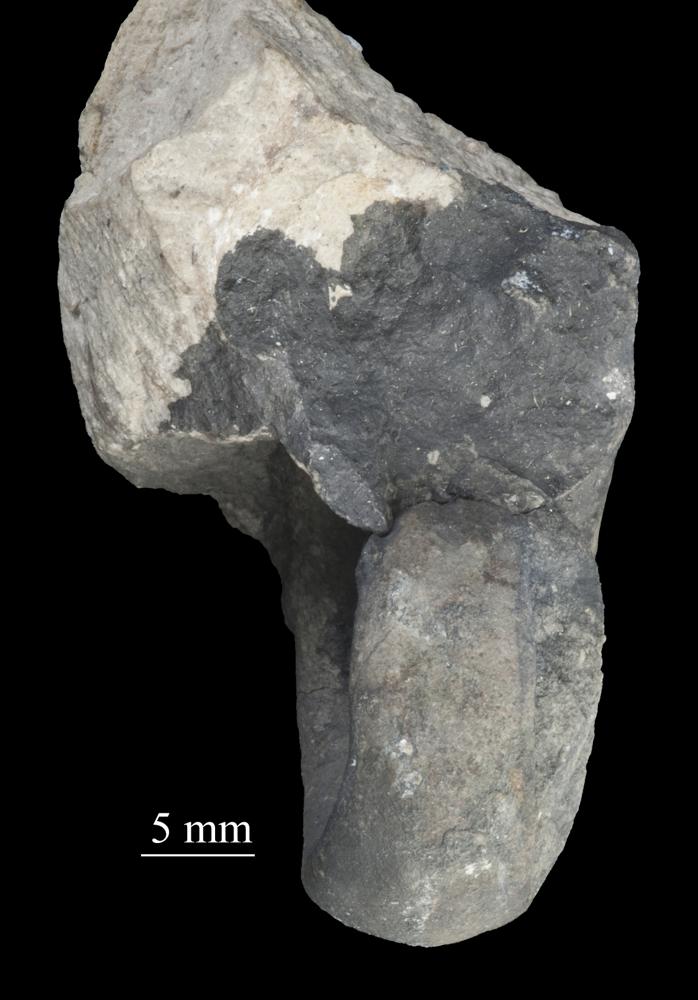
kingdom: Animalia
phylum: Mollusca
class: Gastropoda
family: Bellerophontidae
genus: Bellerophon
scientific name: Bellerophon contortus
